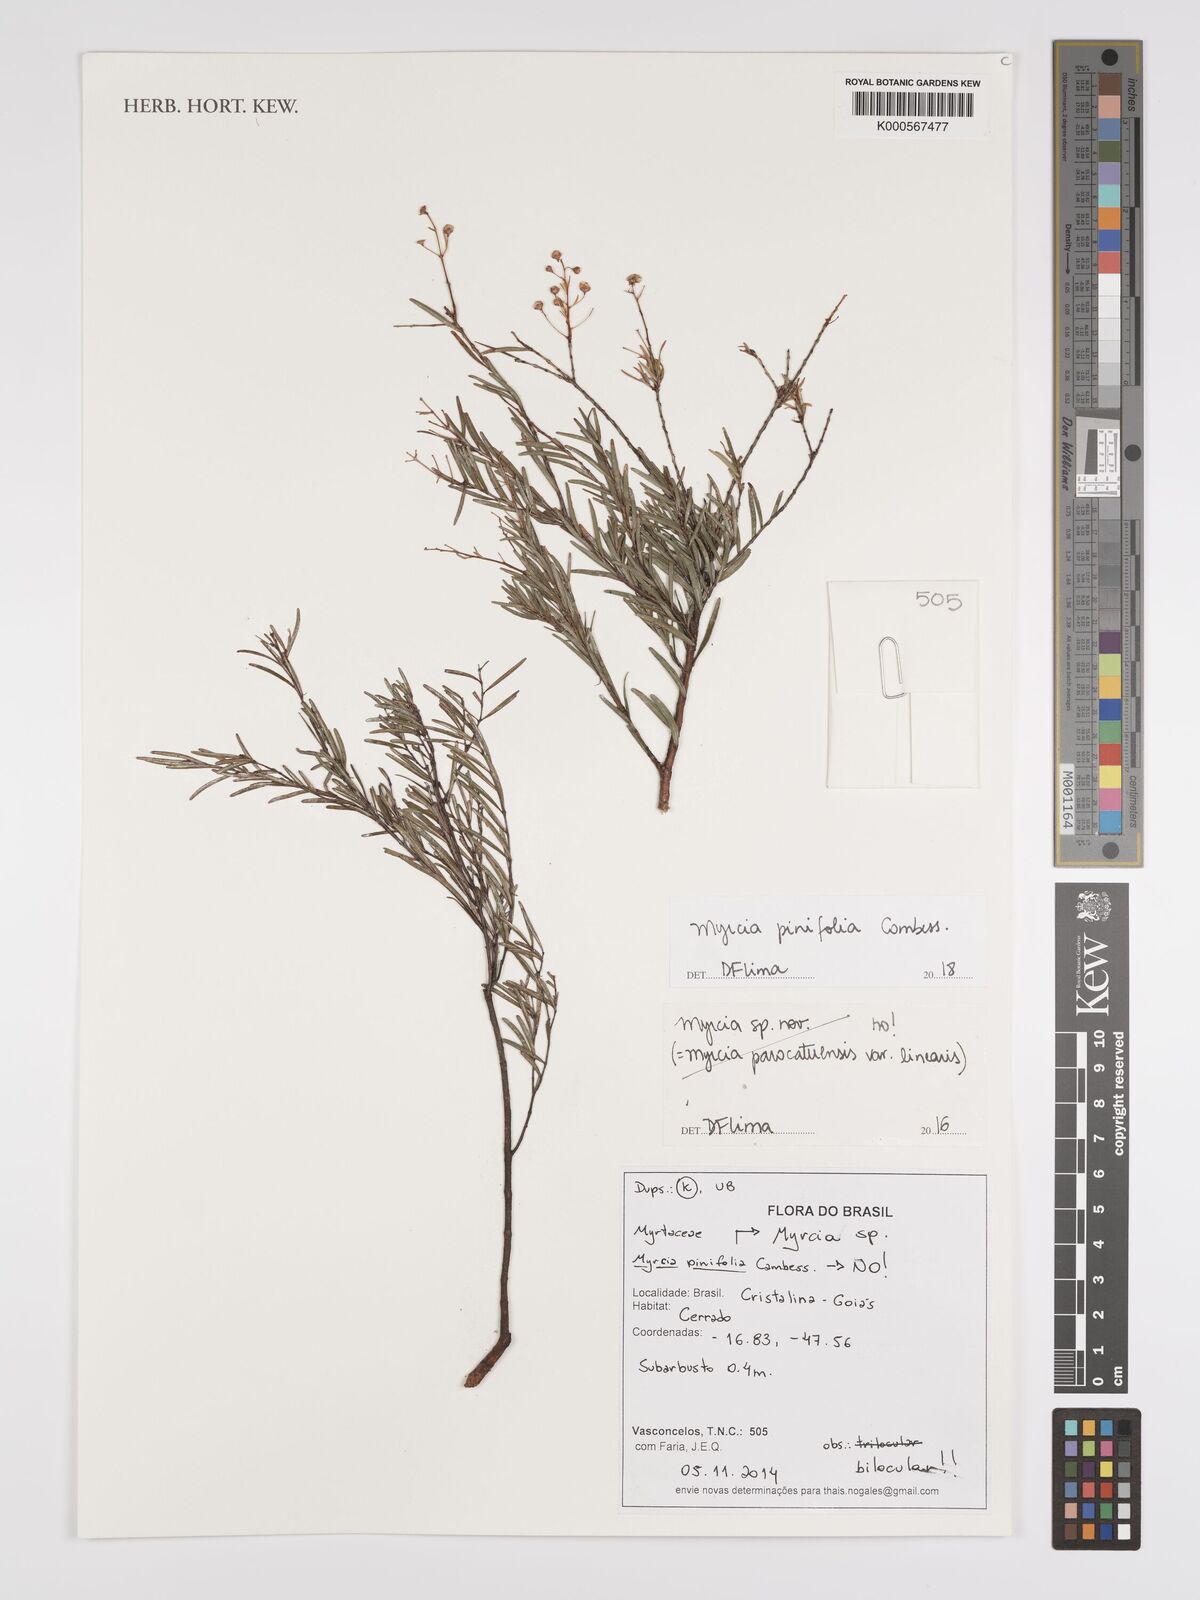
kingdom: Plantae
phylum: Tracheophyta
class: Magnoliopsida
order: Myrtales
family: Myrtaceae
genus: Myrcia
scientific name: Myrcia pinifolia
